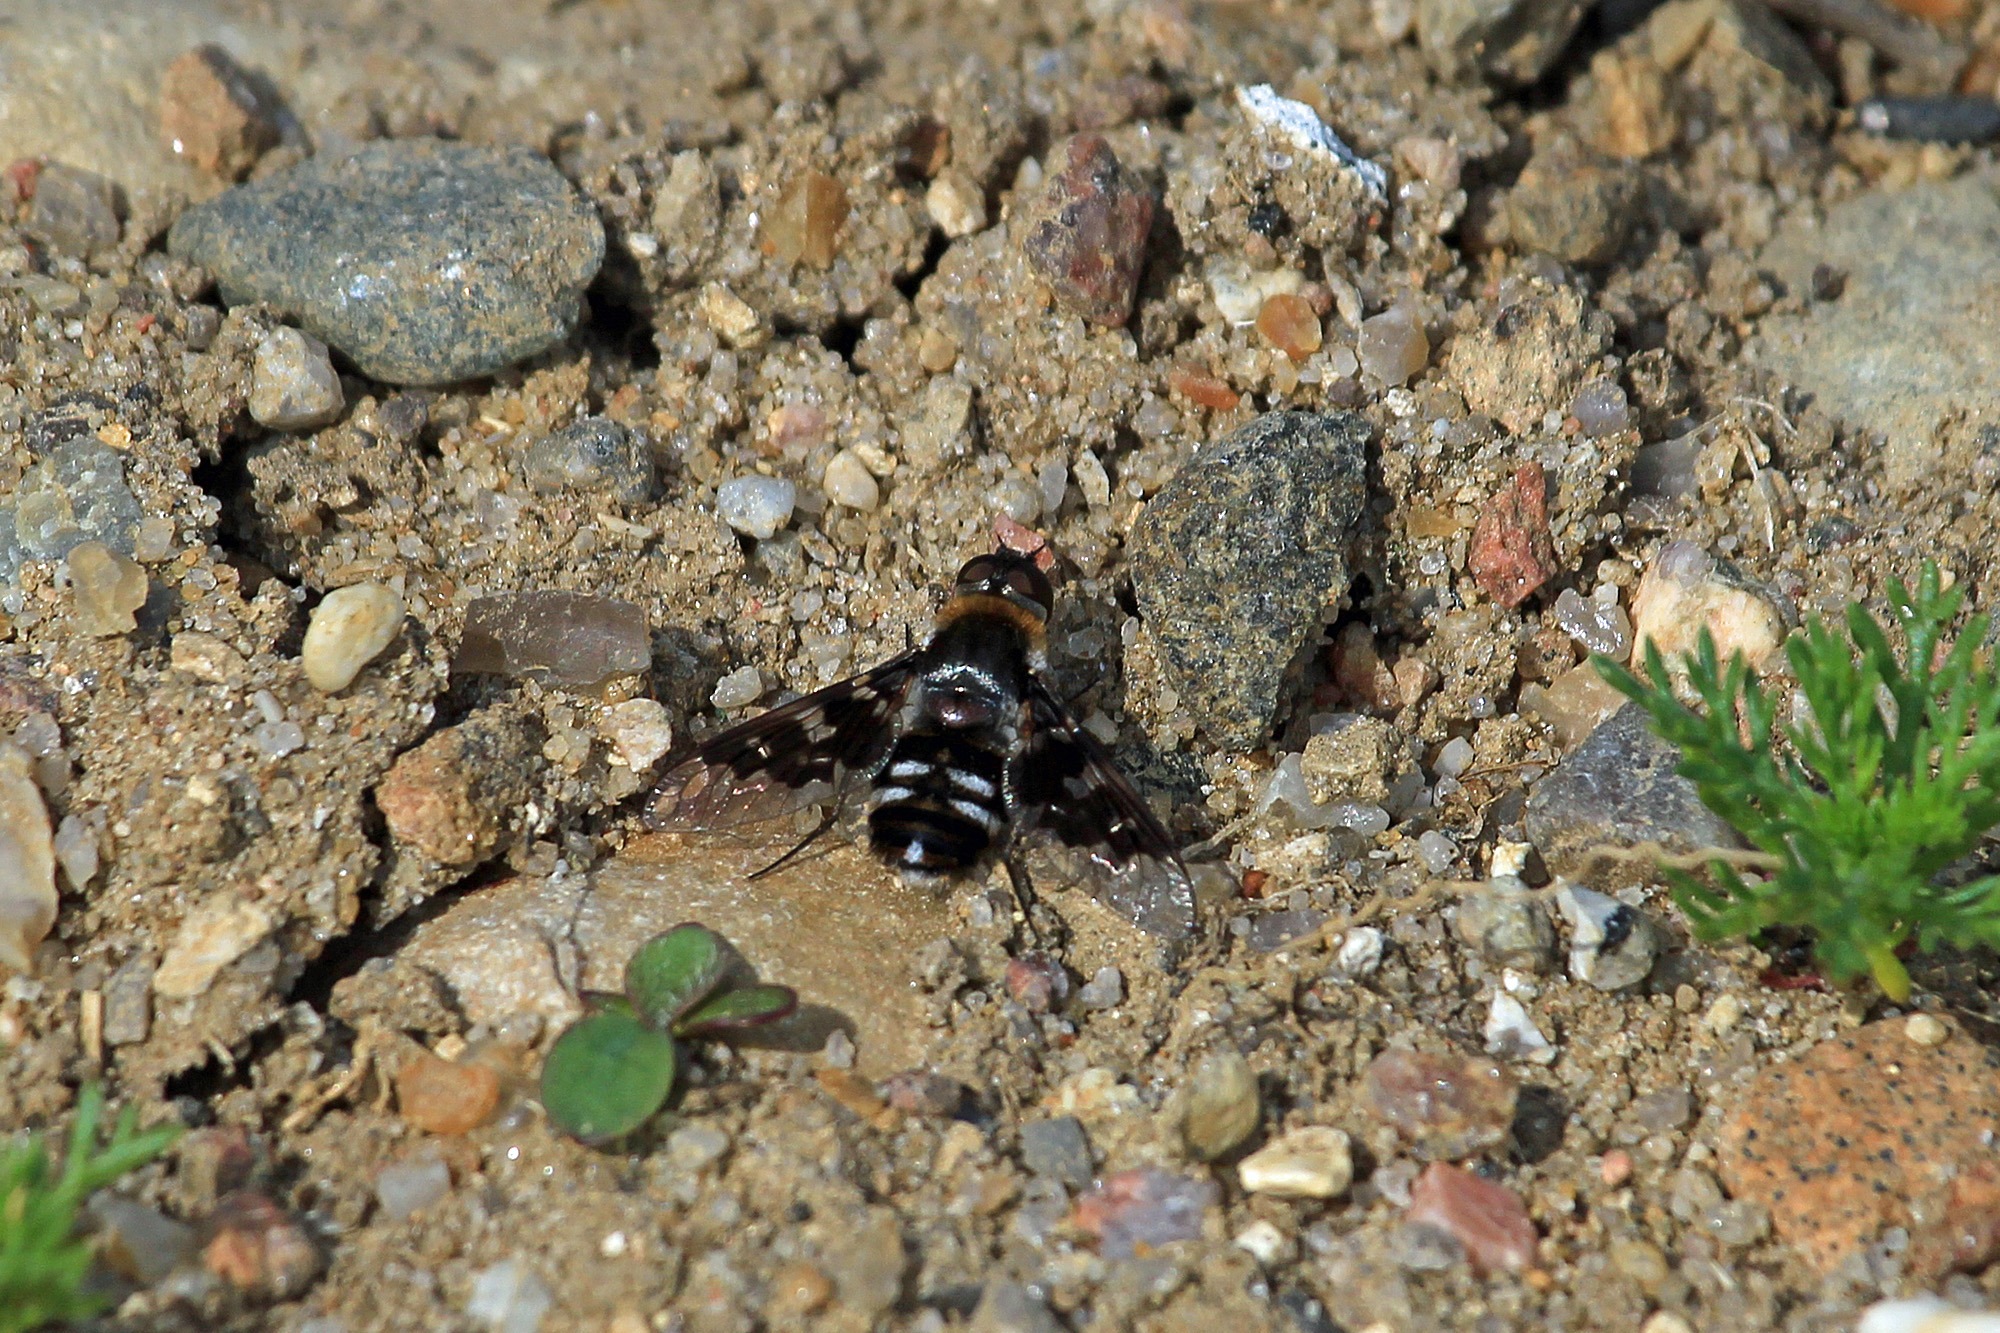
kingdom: Animalia
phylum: Arthropoda
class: Insecta
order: Diptera
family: Bombyliidae
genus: Thyridanthrax
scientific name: Thyridanthrax fenestratus
